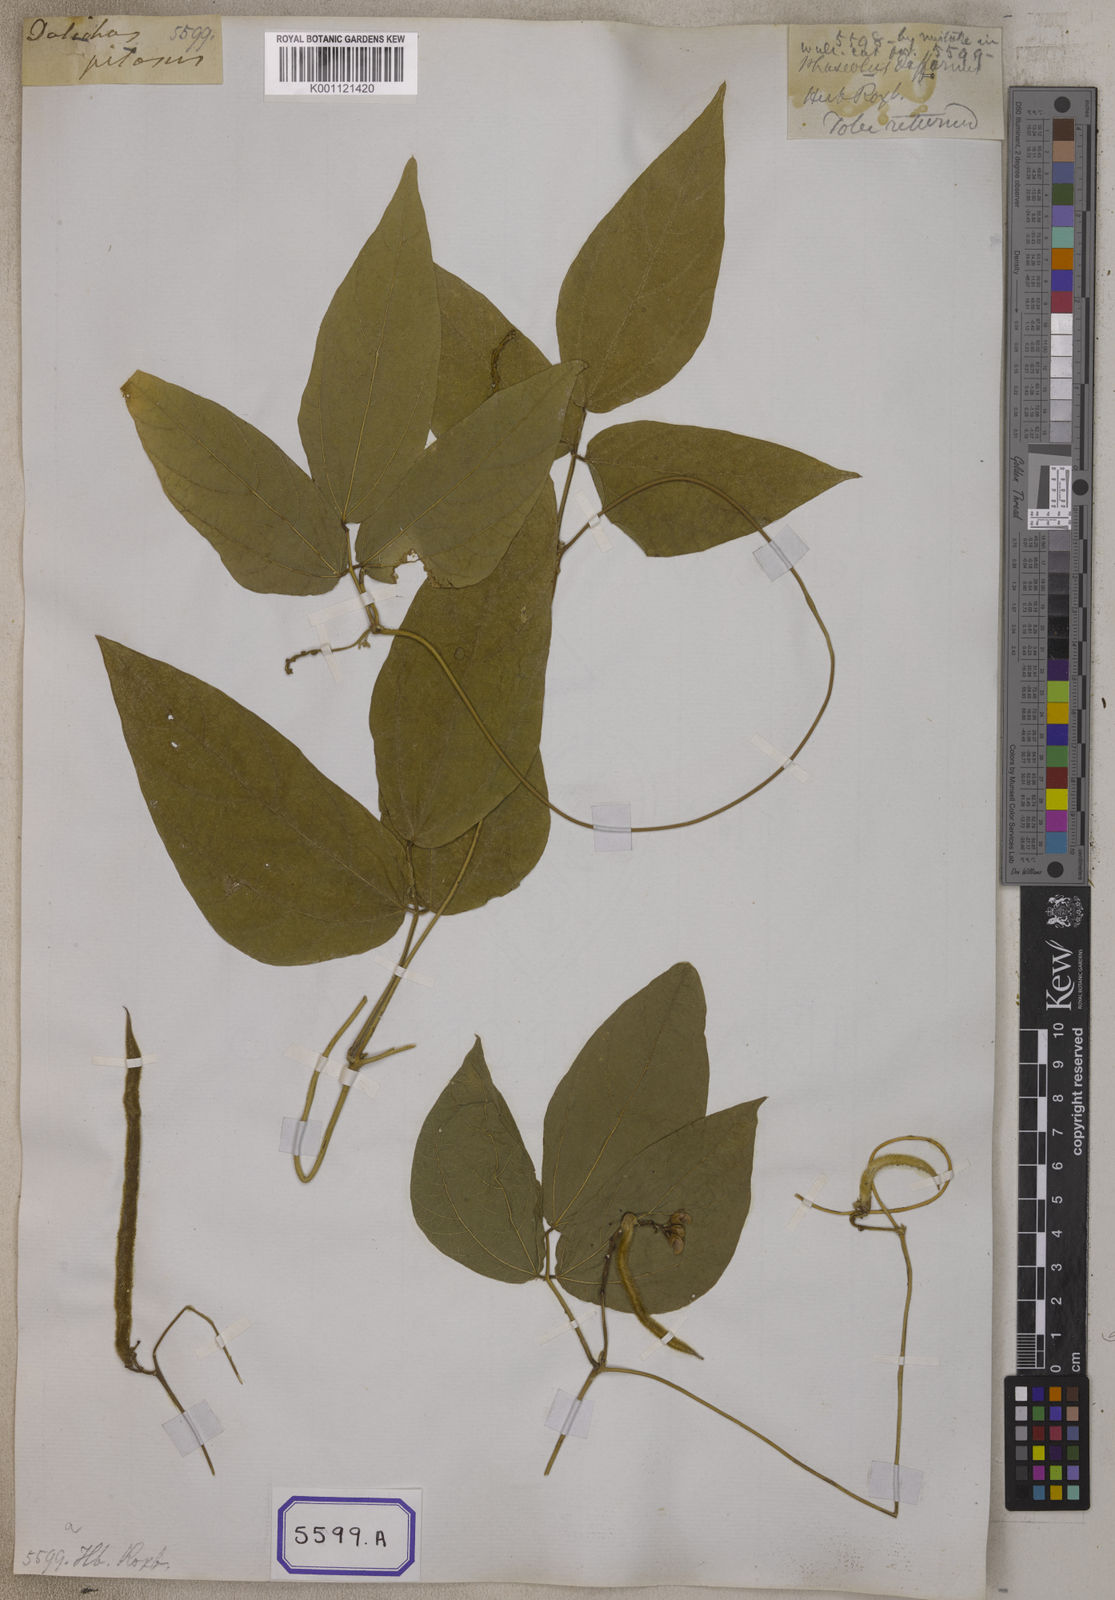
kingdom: Plantae
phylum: Tracheophyta
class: Magnoliopsida
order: Fabales
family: Fabaceae
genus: Dysolobium
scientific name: Dysolobium pilosum
